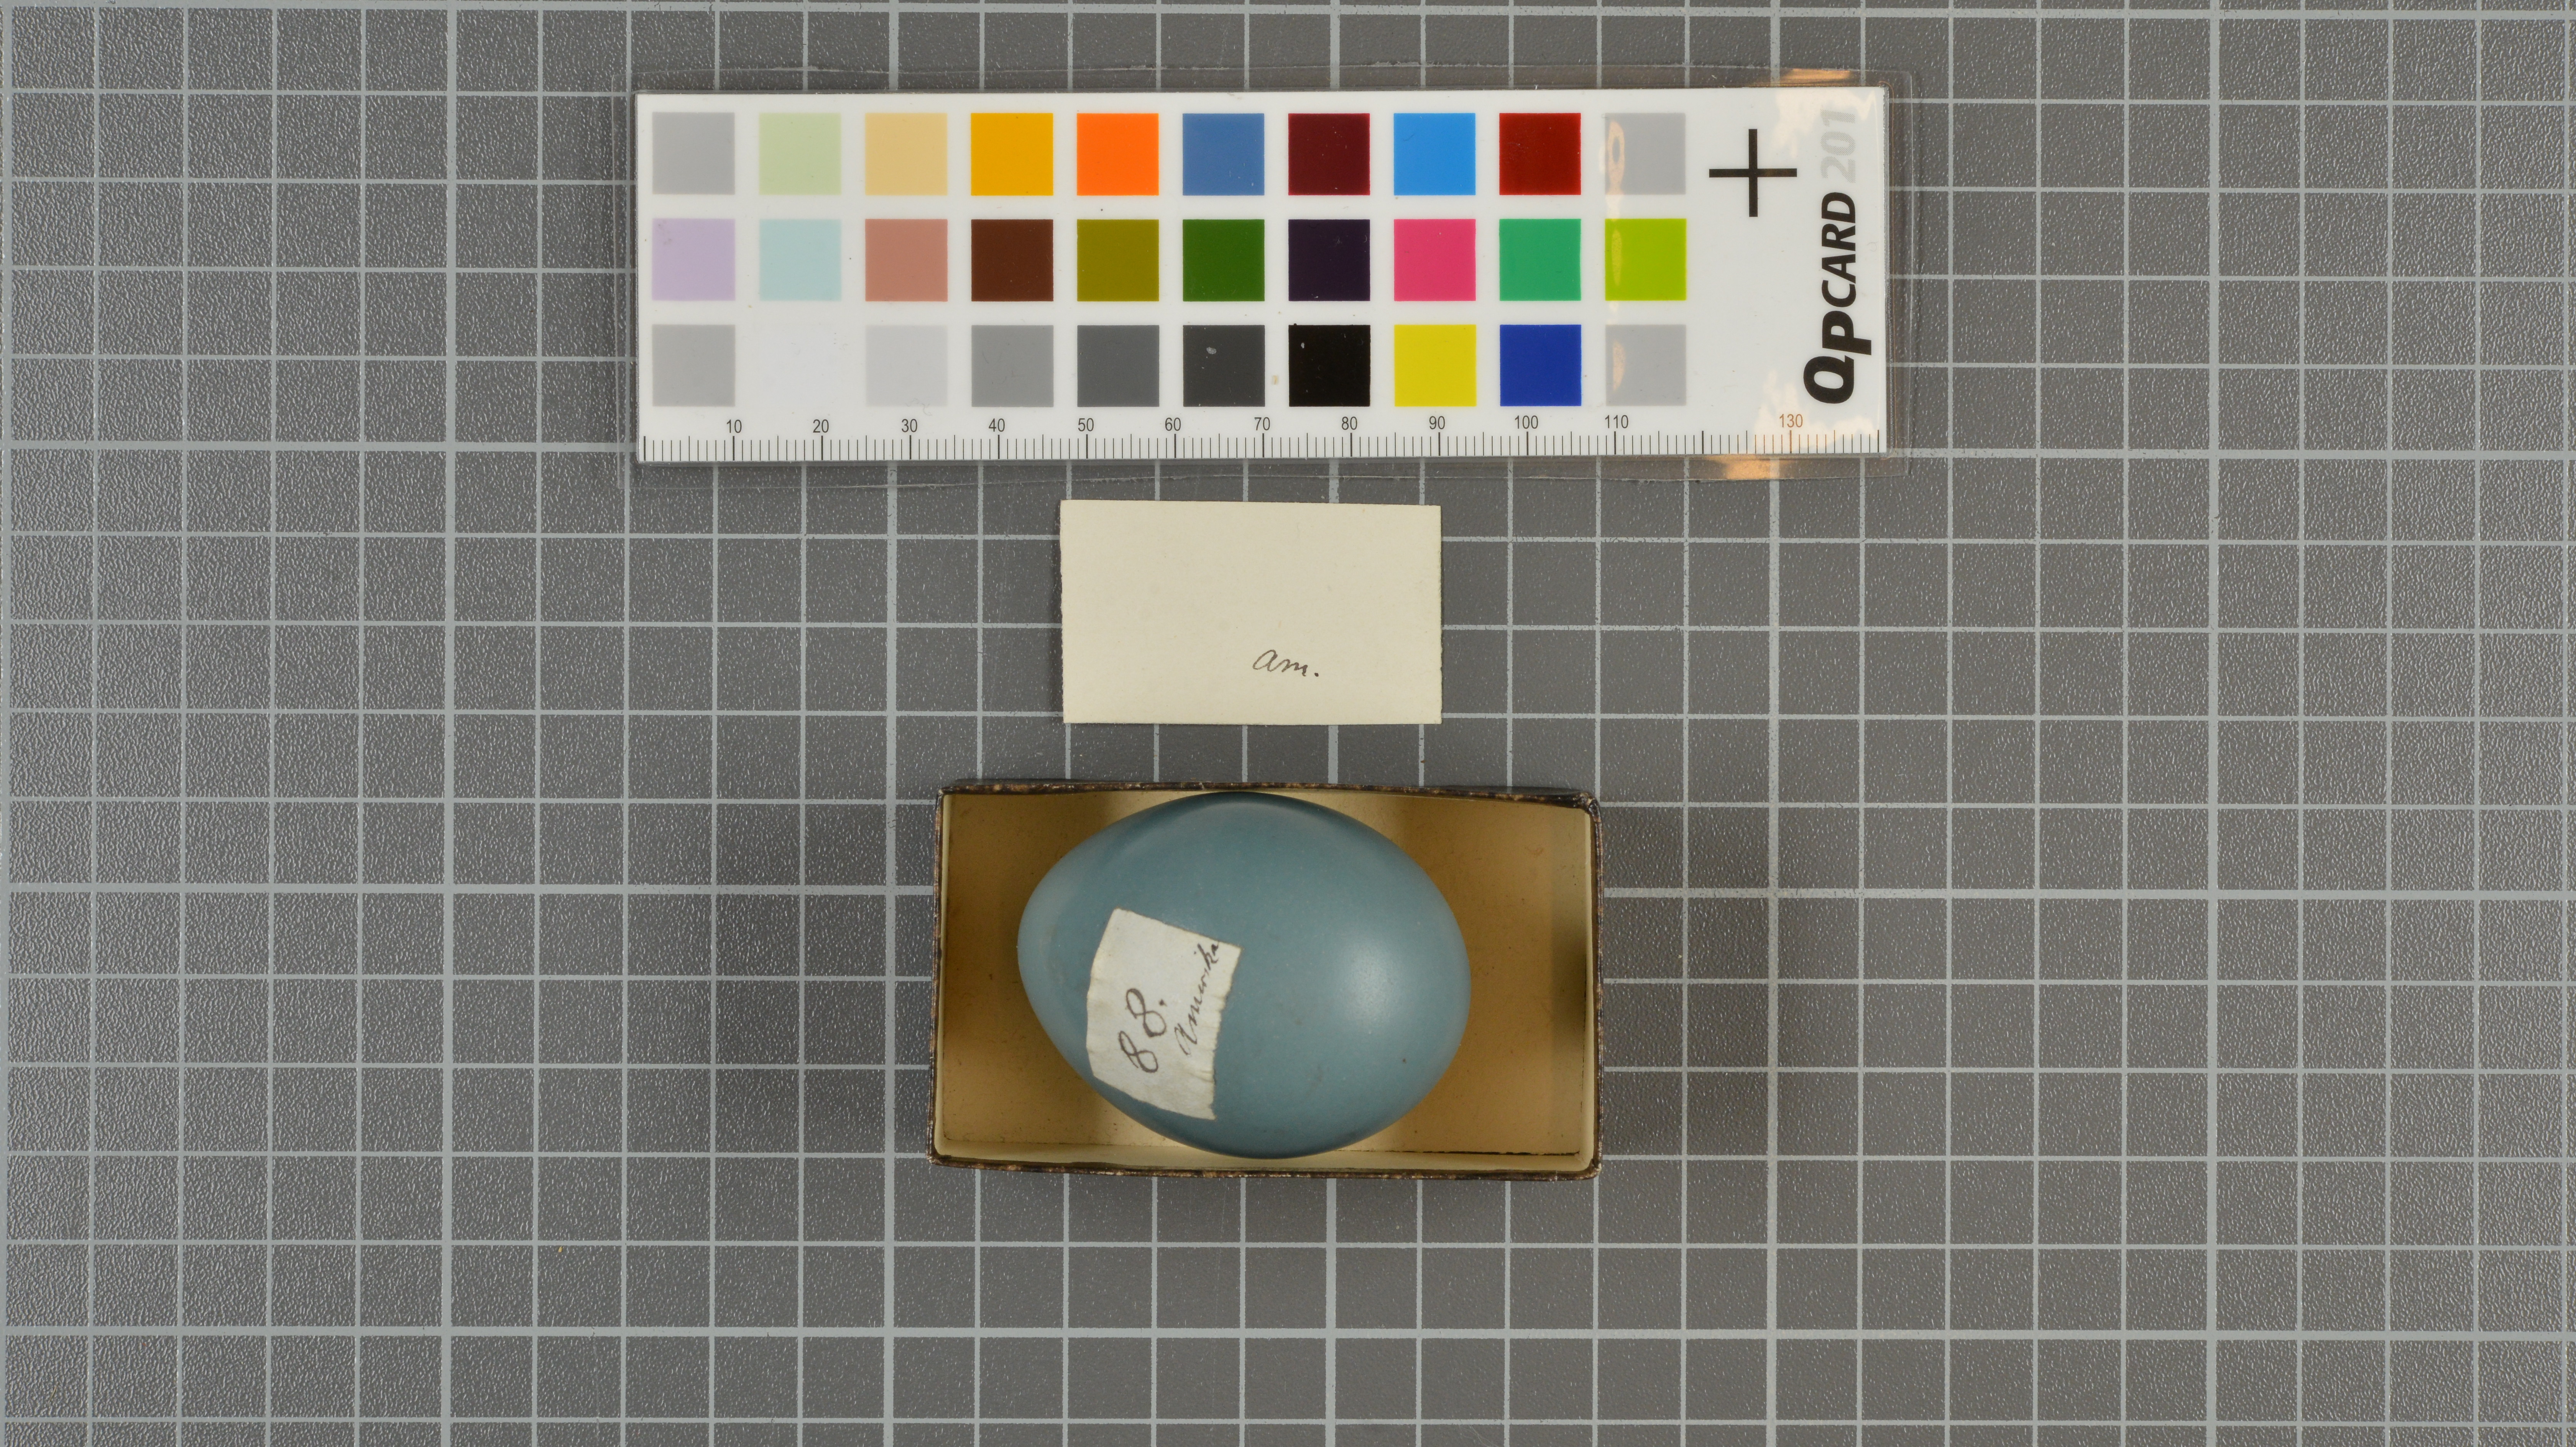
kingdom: Animalia
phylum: Chordata
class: Aves
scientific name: Aves
